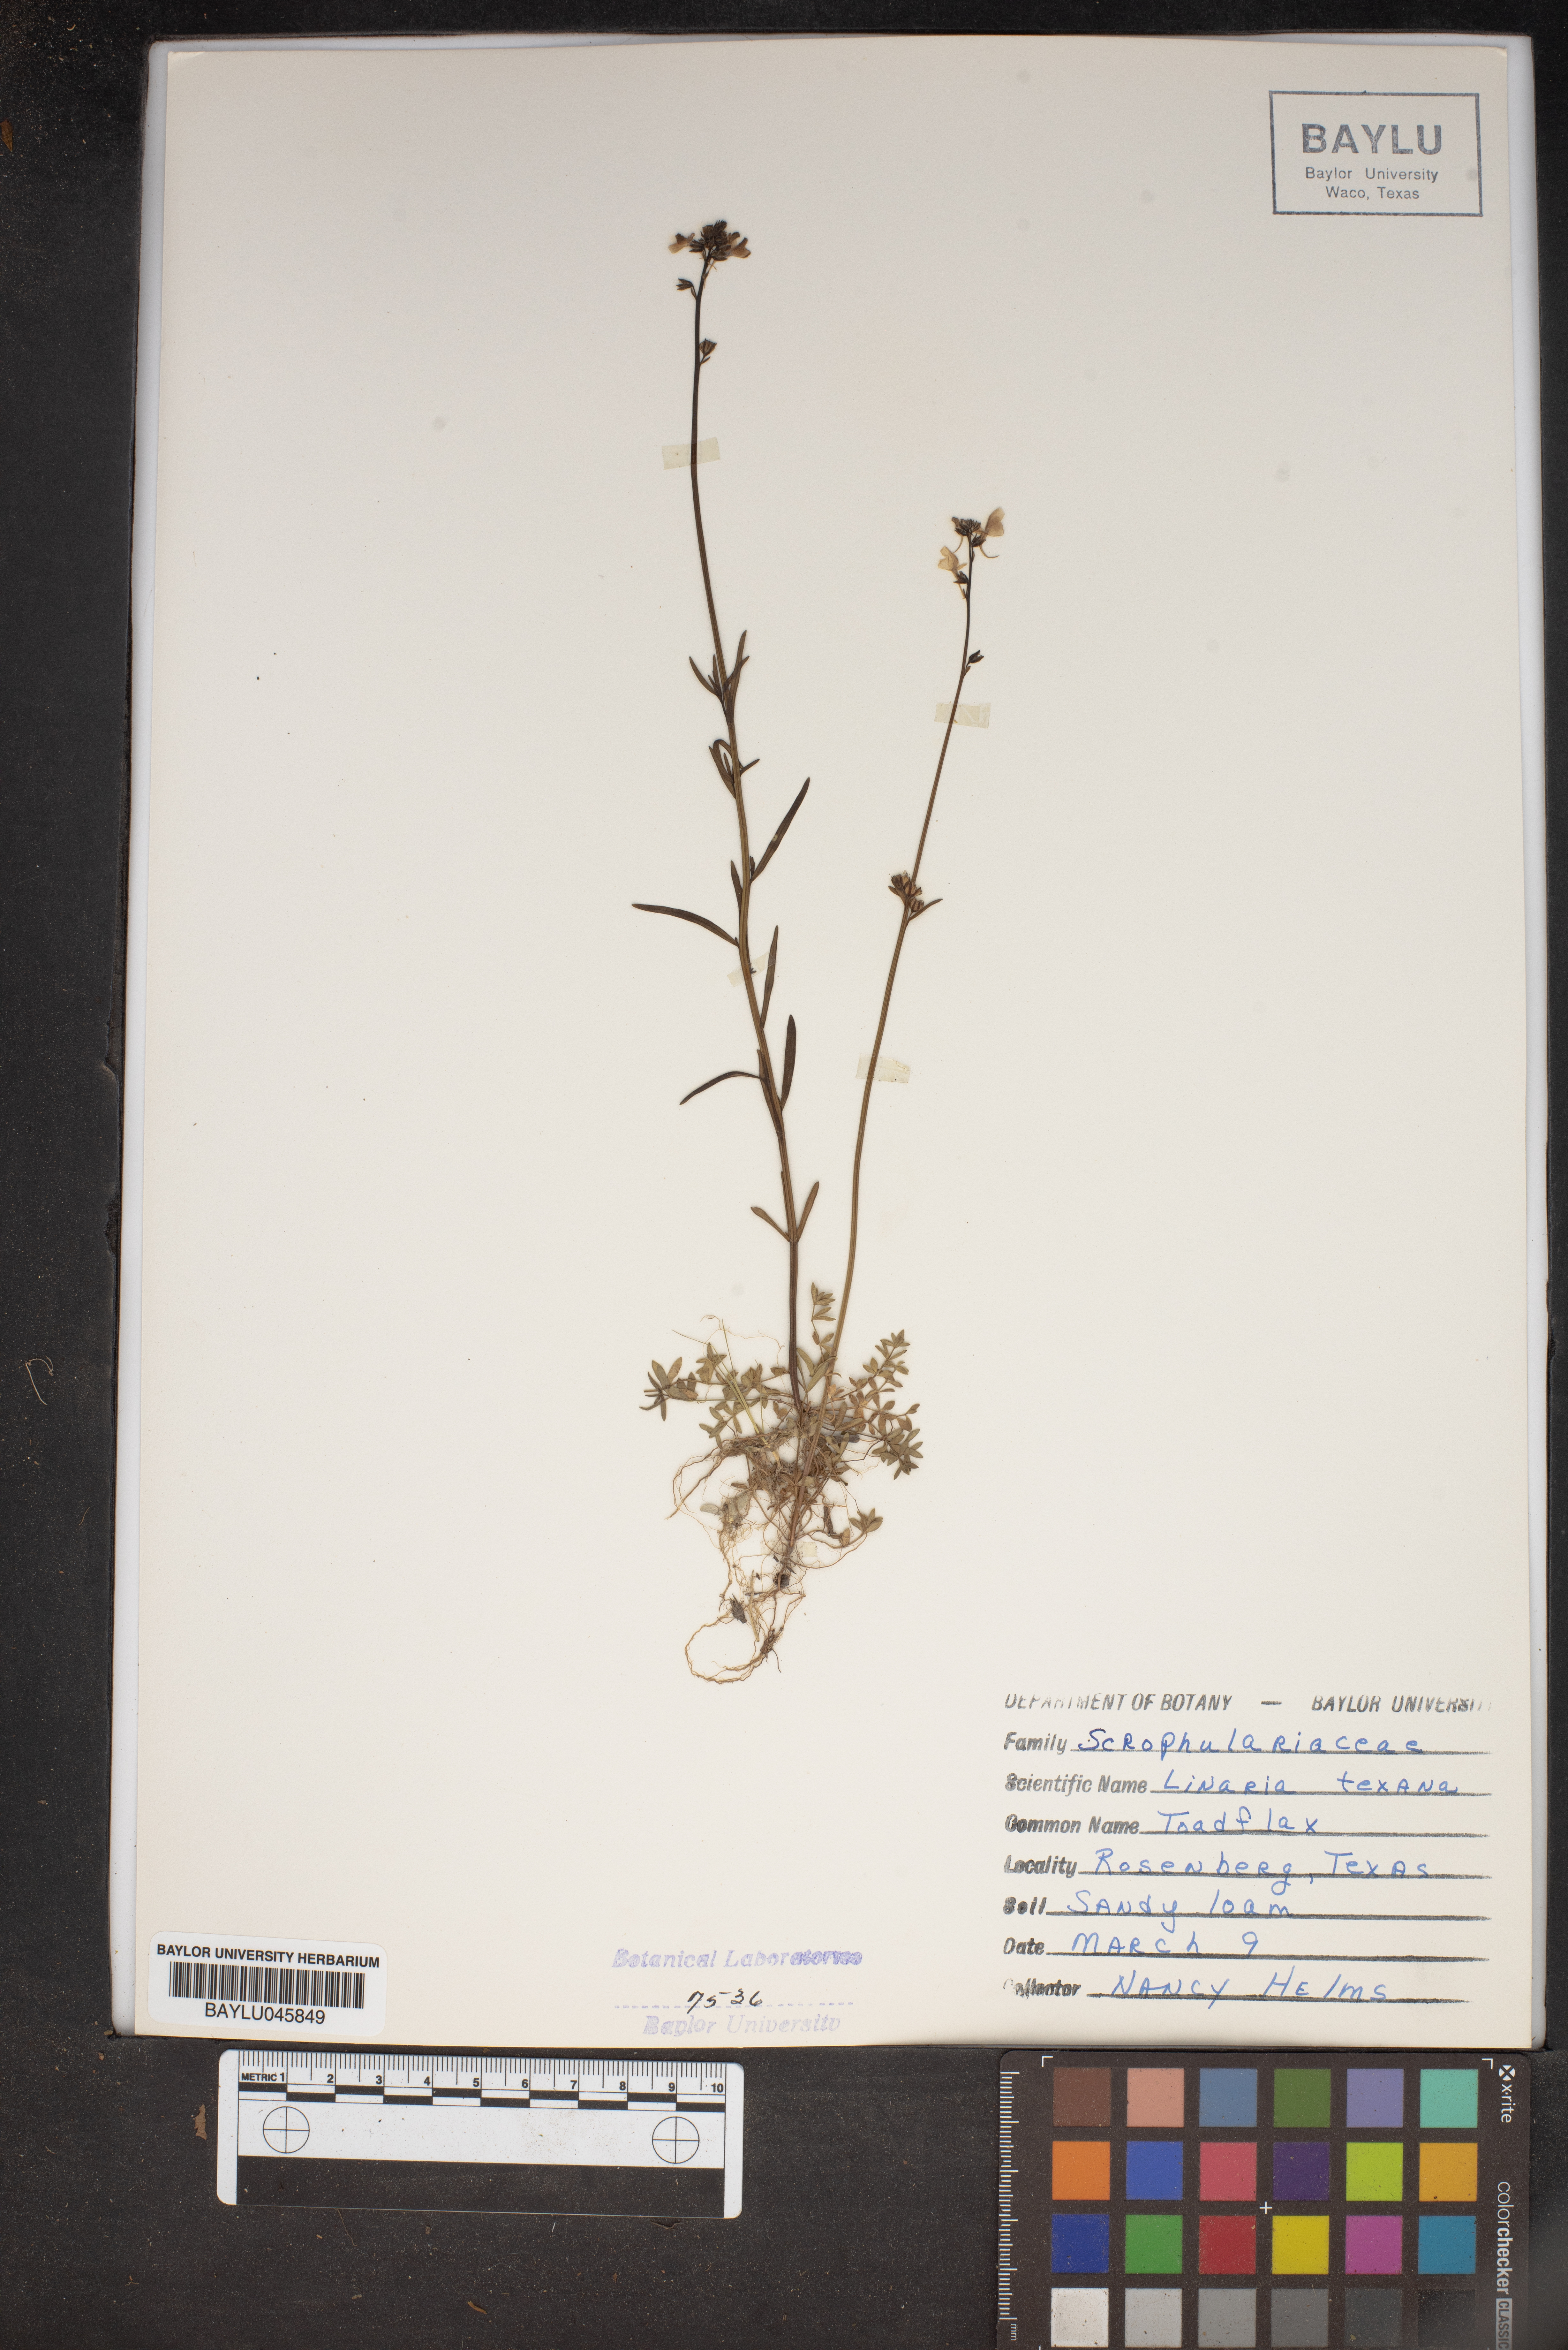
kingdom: Plantae
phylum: Tracheophyta
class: Magnoliopsida
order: Lamiales
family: Plantaginaceae
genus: Nuttallanthus
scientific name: Nuttallanthus texanus
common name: Texas toadflax
